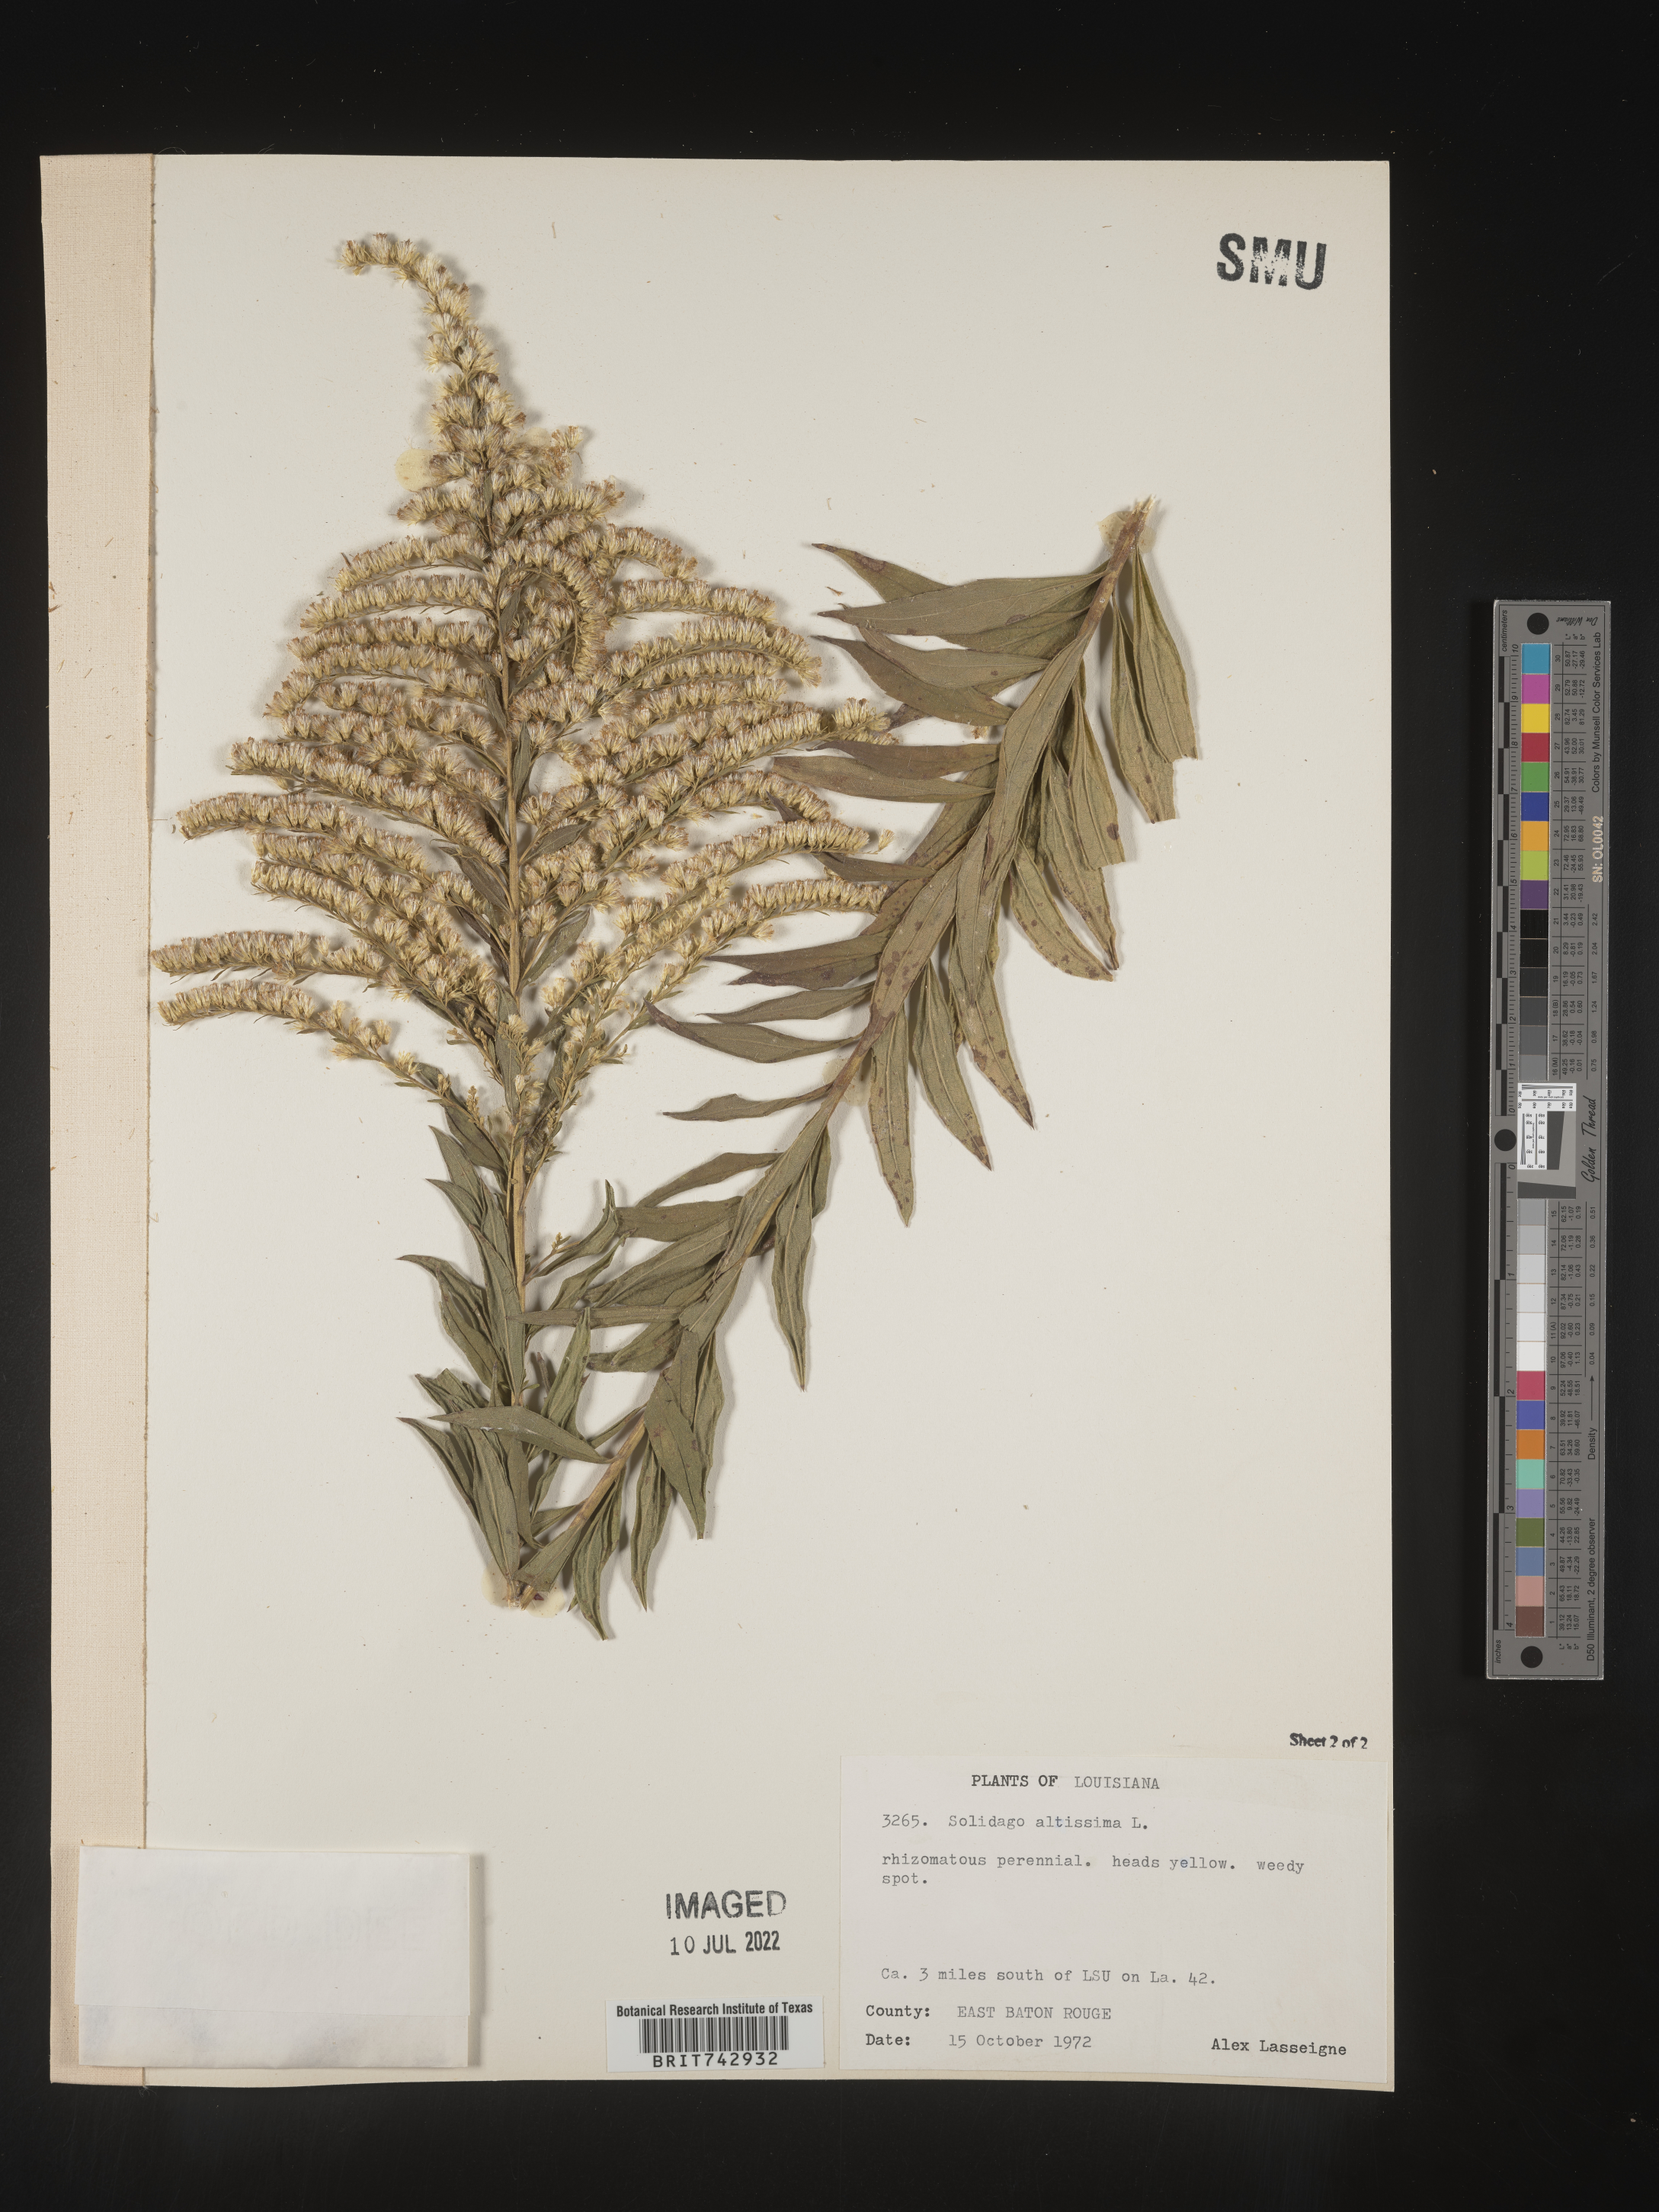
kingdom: Plantae
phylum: Tracheophyta
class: Magnoliopsida
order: Asterales
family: Asteraceae
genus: Solidago
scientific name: Solidago altissima
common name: Late goldenrod
